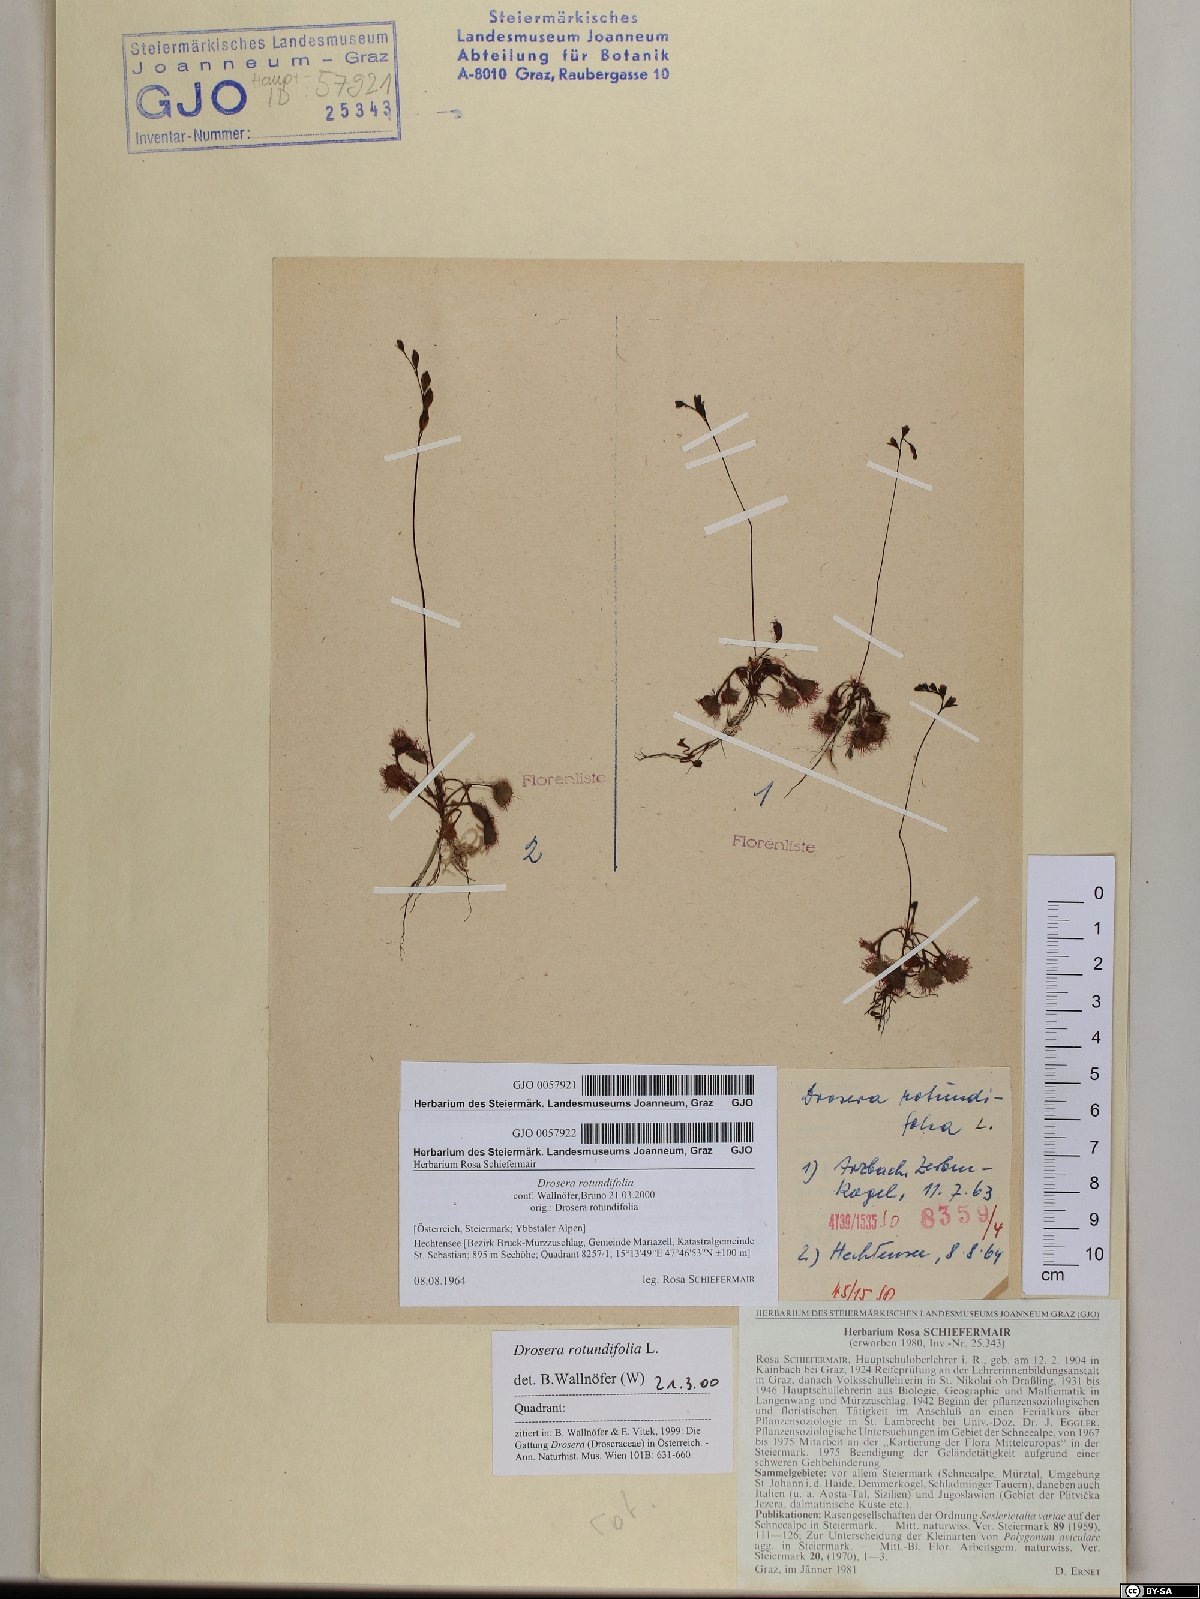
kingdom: Plantae
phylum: Tracheophyta
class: Magnoliopsida
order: Caryophyllales
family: Droseraceae
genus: Drosera
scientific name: Drosera rotundifolia
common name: Round-leaved sundew
